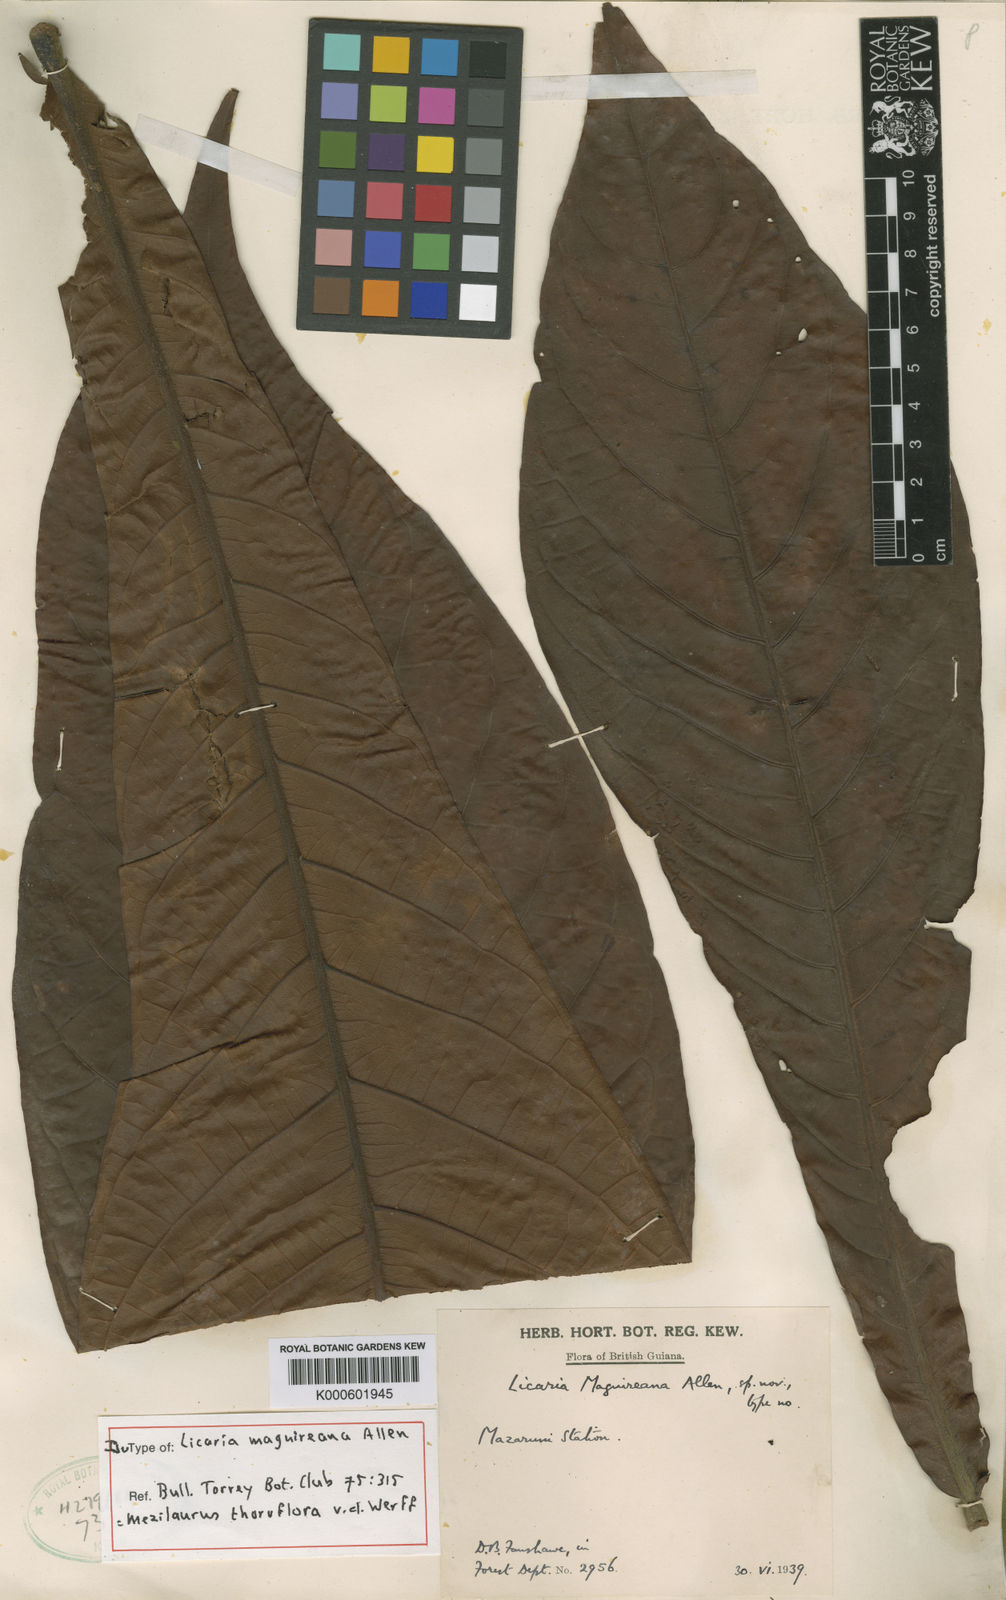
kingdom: Plantae
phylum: Tracheophyta
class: Magnoliopsida
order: Laurales
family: Lauraceae
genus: Mezilaurus
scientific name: Mezilaurus thoroflora
